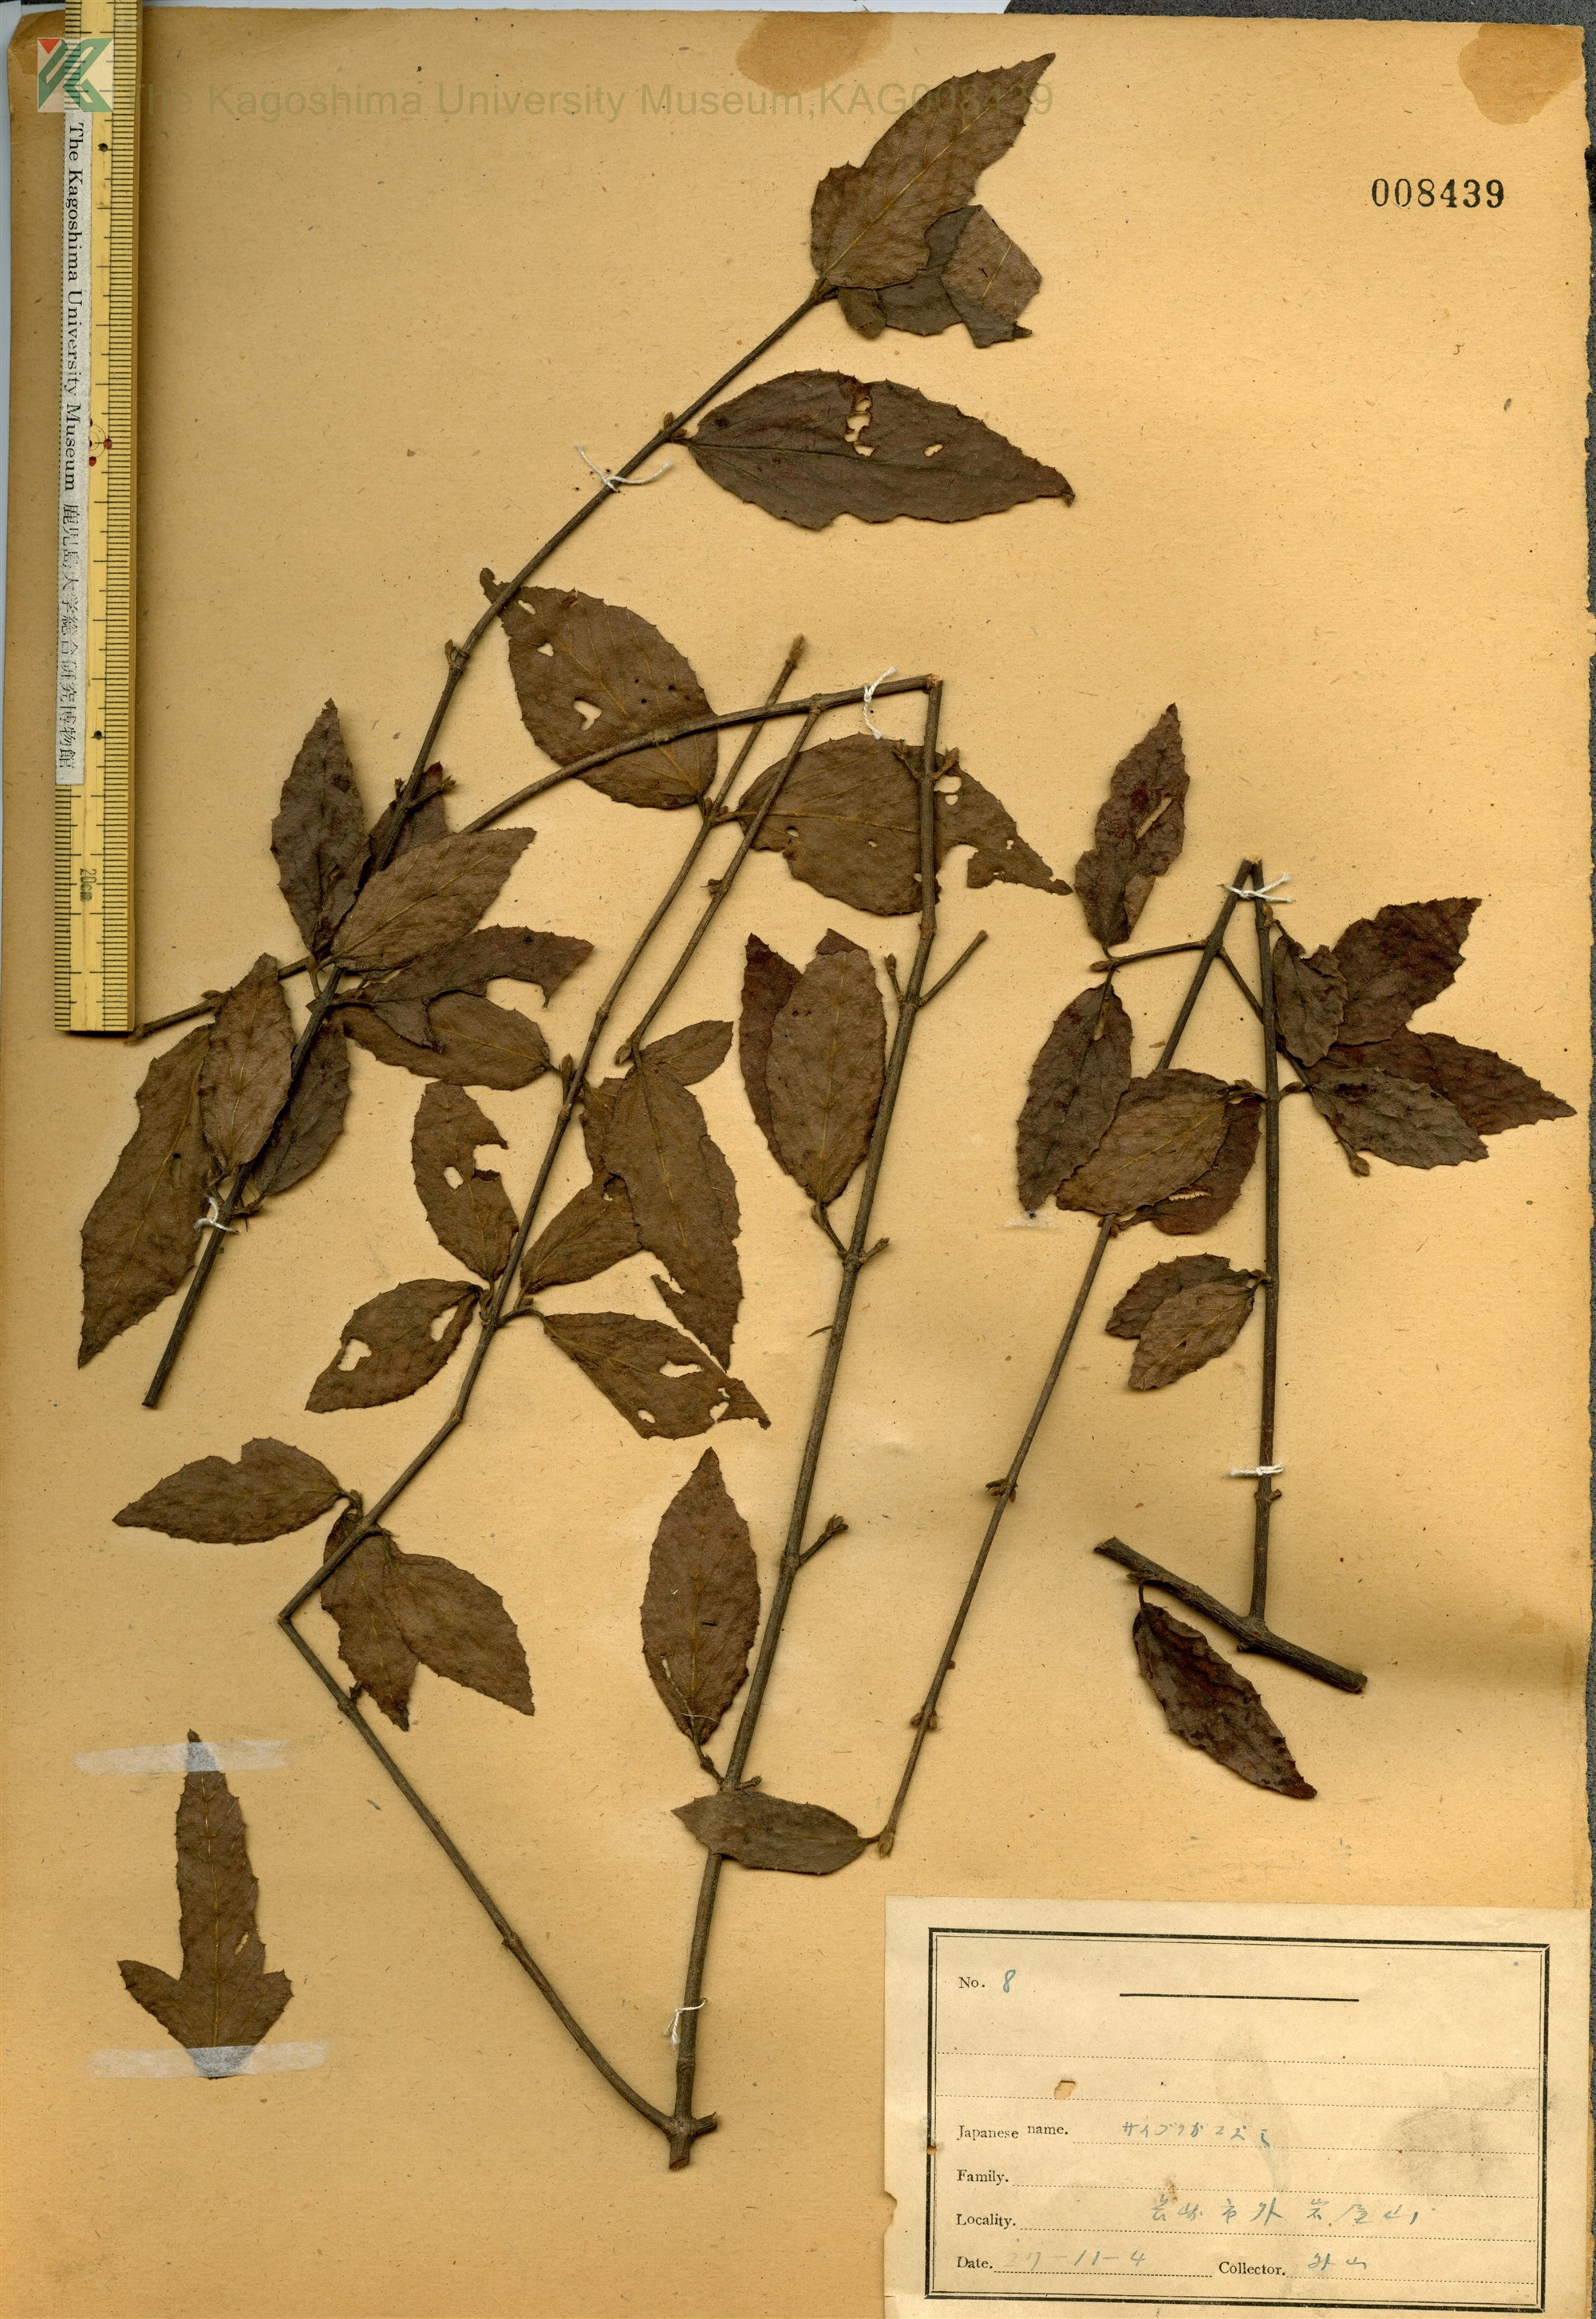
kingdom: Plantae
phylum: Tracheophyta
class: Magnoliopsida
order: Dipsacales
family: Viburnaceae
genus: Viburnum
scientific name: Viburnum erosum
